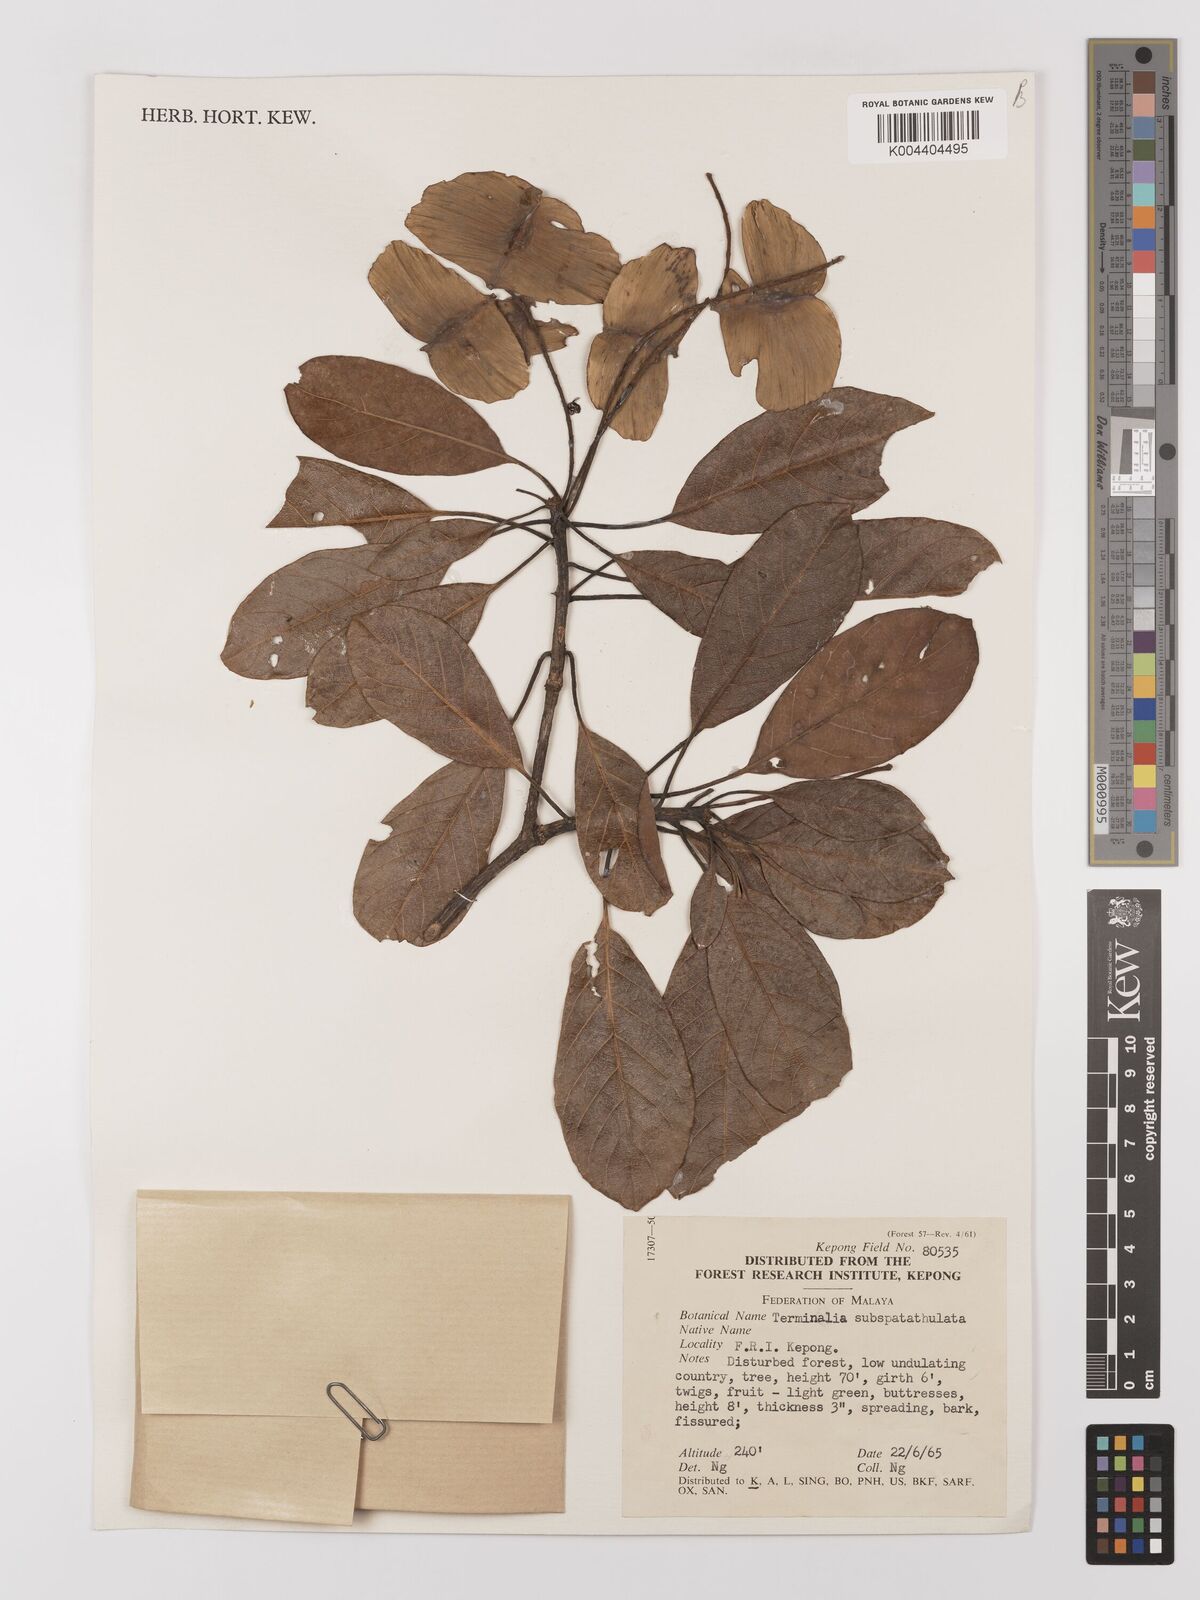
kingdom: Plantae
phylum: Tracheophyta
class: Magnoliopsida
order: Myrtales
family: Combretaceae
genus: Terminalia
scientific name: Terminalia subspathulata
